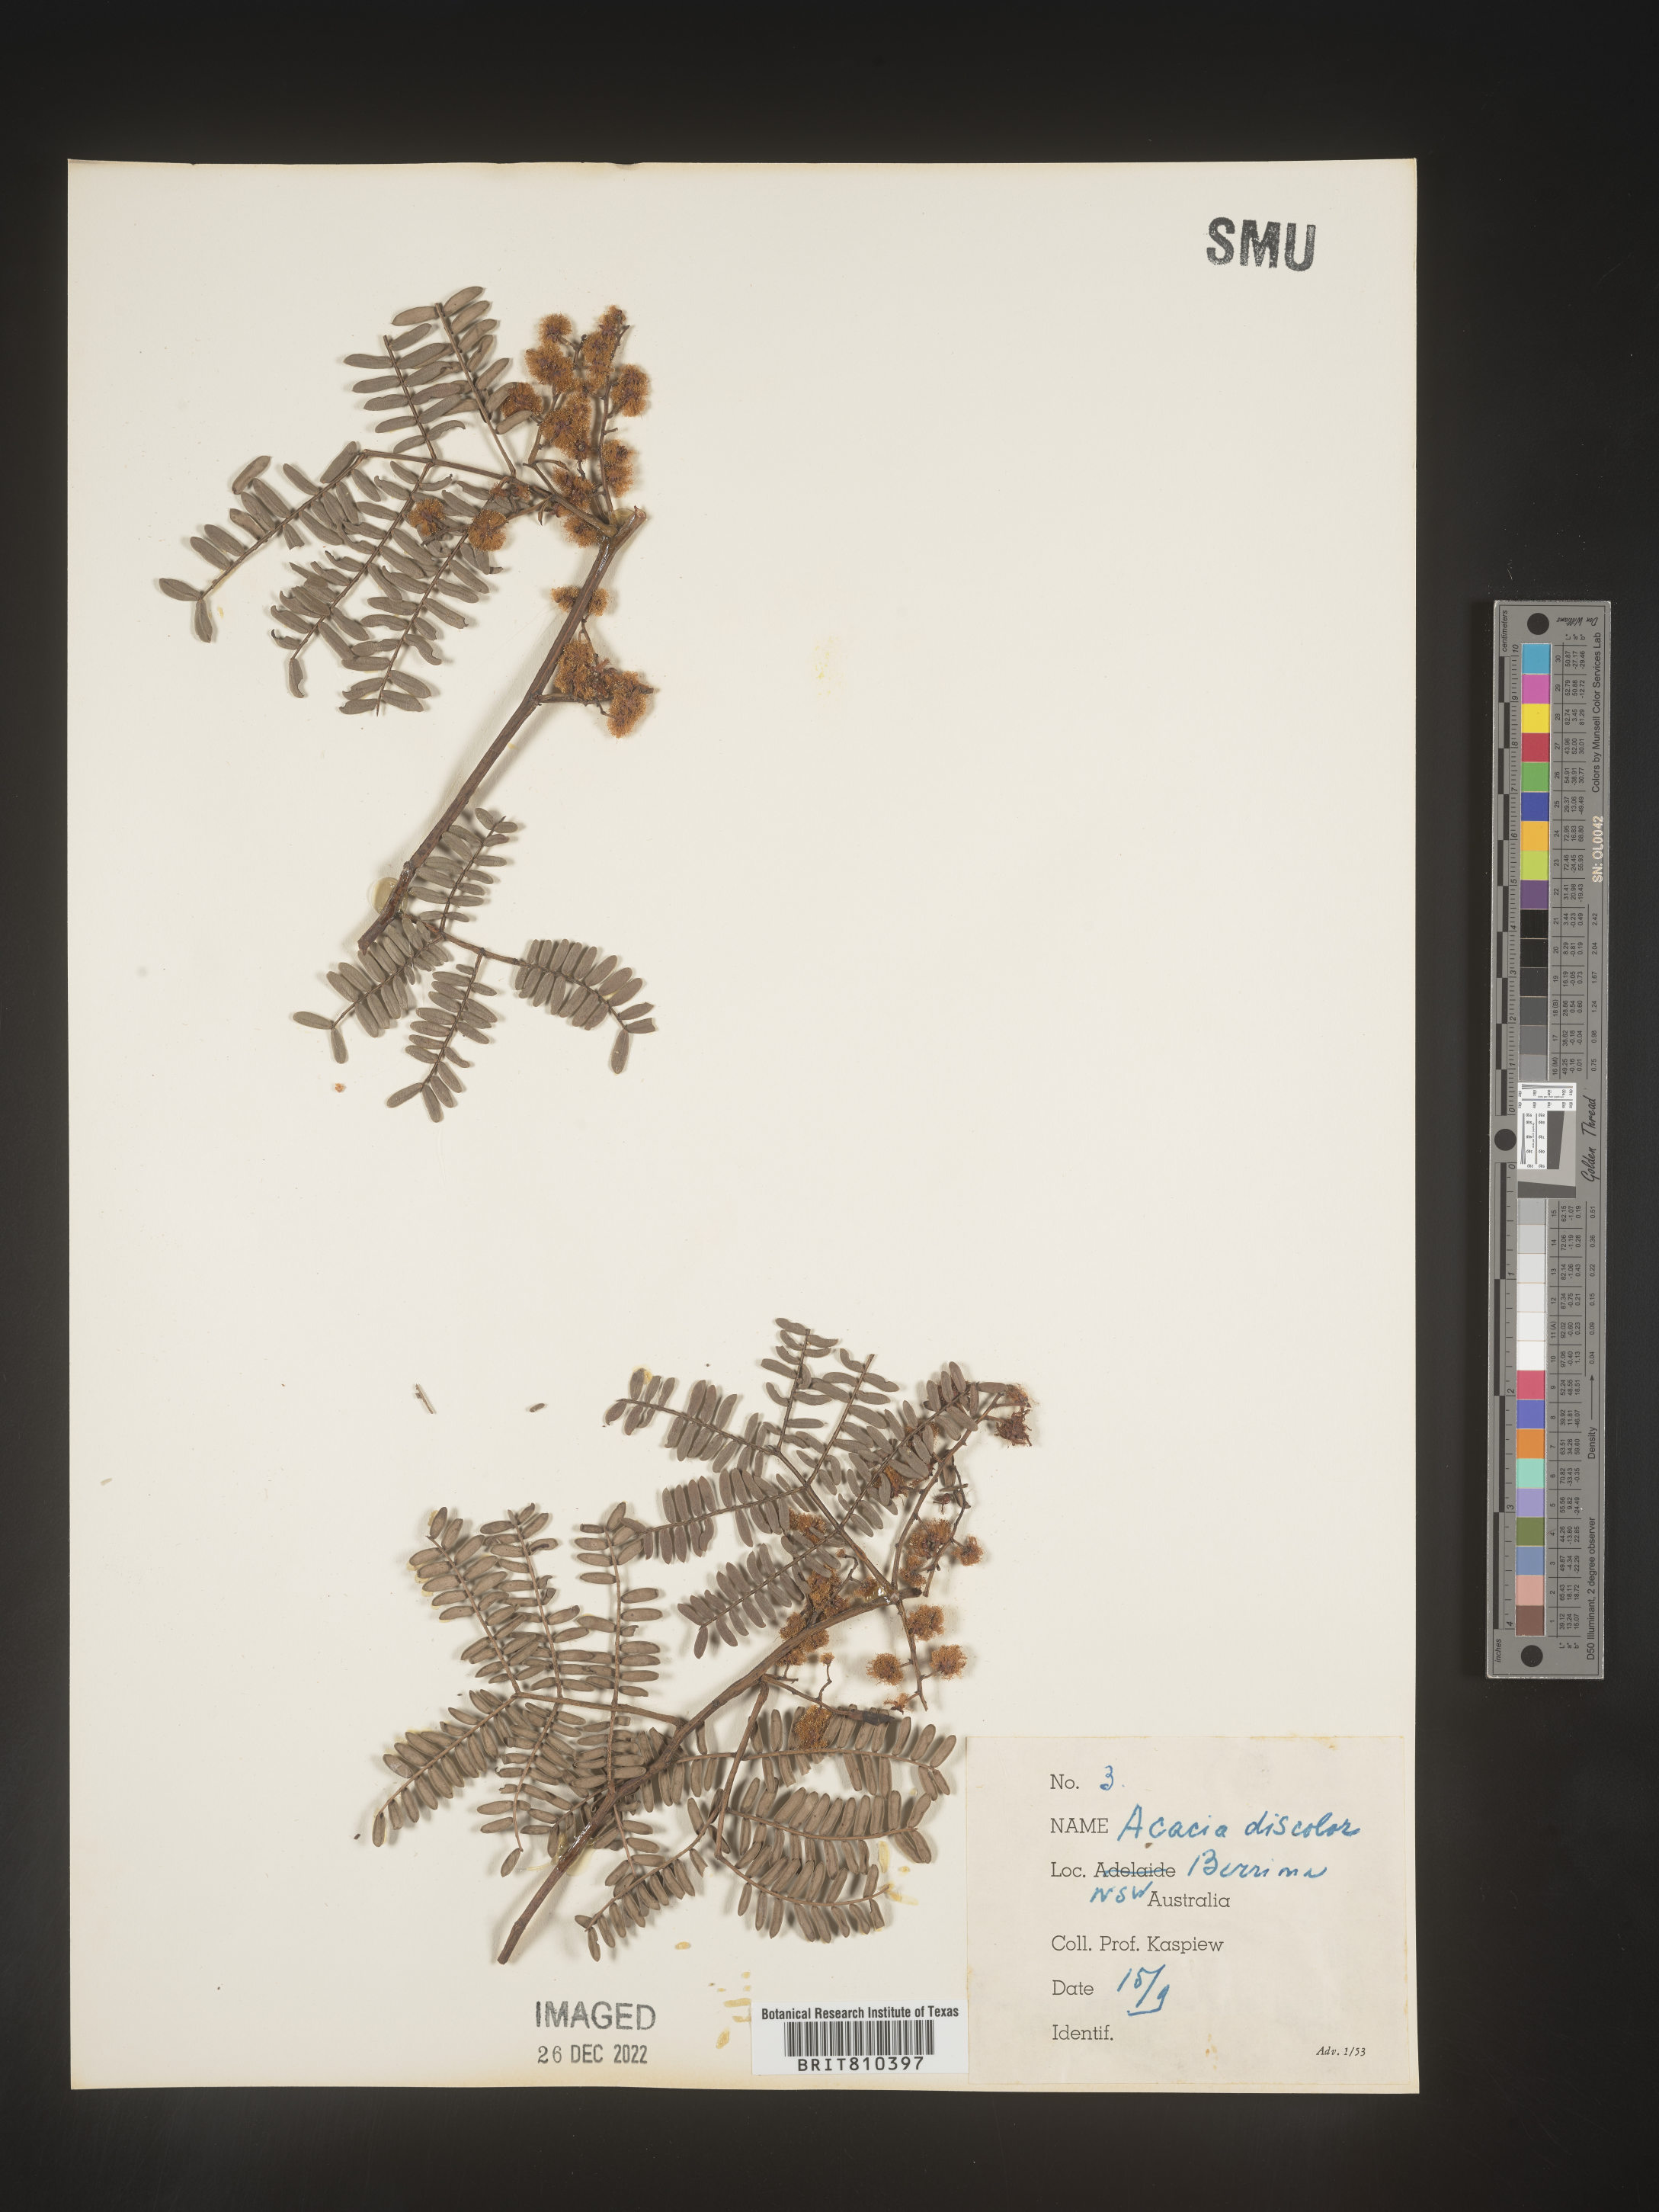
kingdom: Plantae
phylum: Tracheophyta
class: Magnoliopsida
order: Fabales
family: Fabaceae
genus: Acacia
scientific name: Acacia
